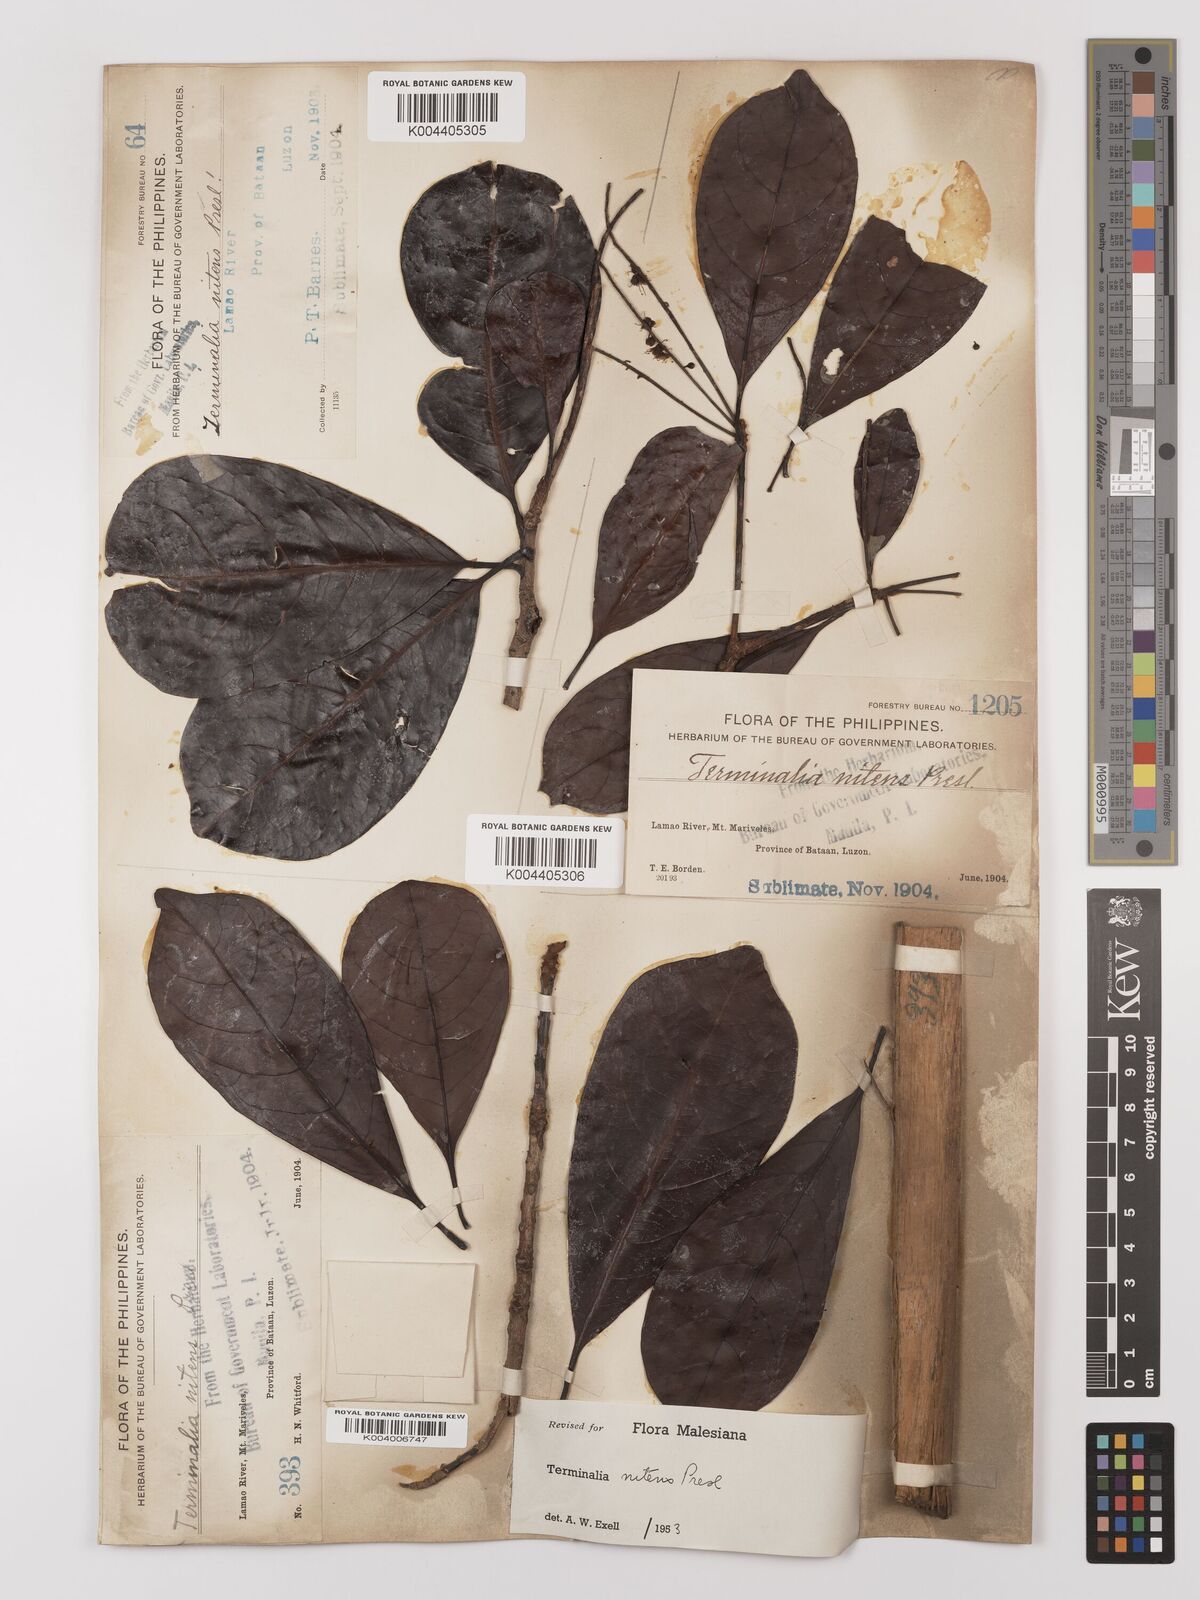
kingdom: Plantae
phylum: Tracheophyta
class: Magnoliopsida
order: Myrtales
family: Combretaceae
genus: Terminalia
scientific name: Terminalia nitens
